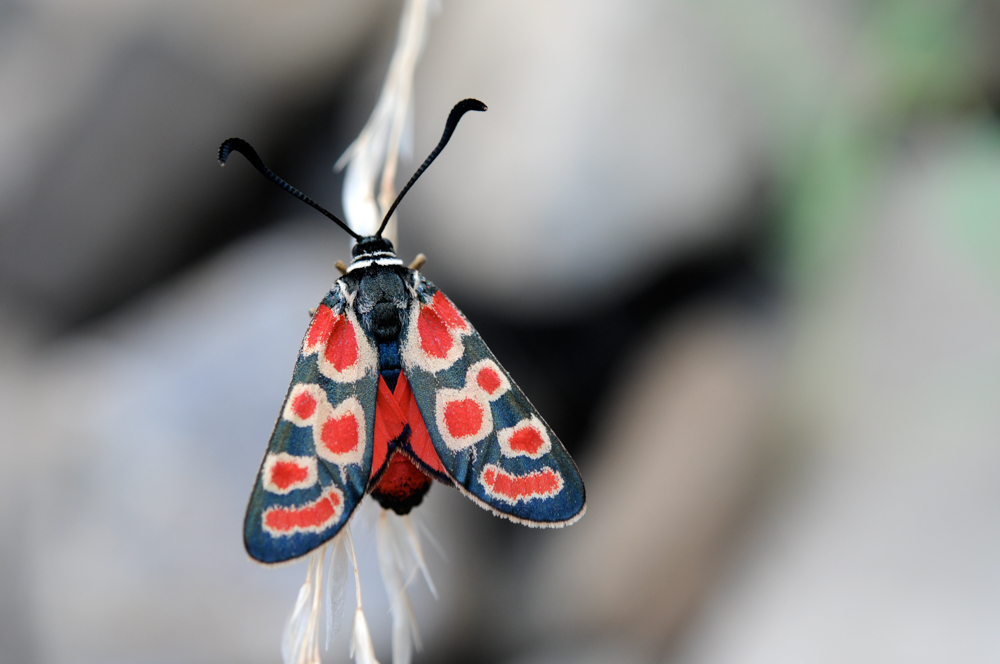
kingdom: Animalia
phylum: Arthropoda
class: Insecta
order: Lepidoptera
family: Zygaenidae
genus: Zygaena
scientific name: Zygaena carniolica
